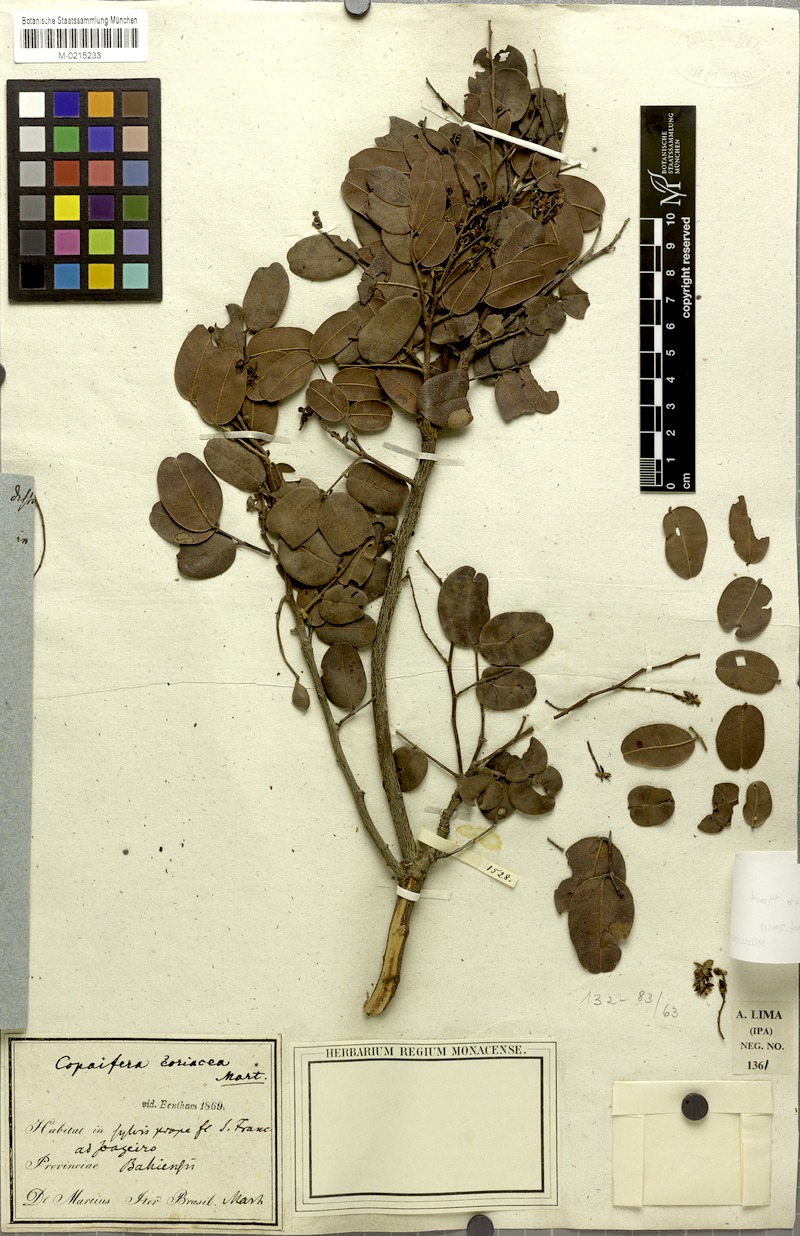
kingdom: Plantae
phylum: Tracheophyta
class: Magnoliopsida
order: Fabales
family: Fabaceae
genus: Copaifera
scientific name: Copaifera coriacea
